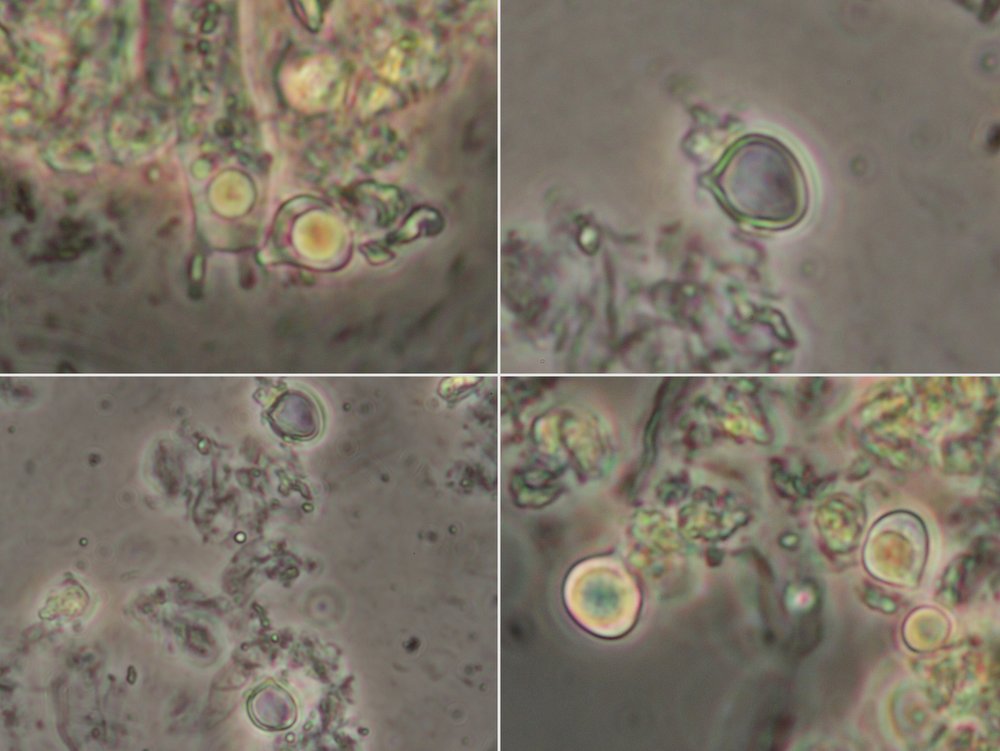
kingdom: Fungi
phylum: Basidiomycota
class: Agaricomycetes
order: Agaricales
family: Clavariaceae
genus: Clavulinopsis
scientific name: Clavulinopsis laeticolor
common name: flamme-køllesvamp
